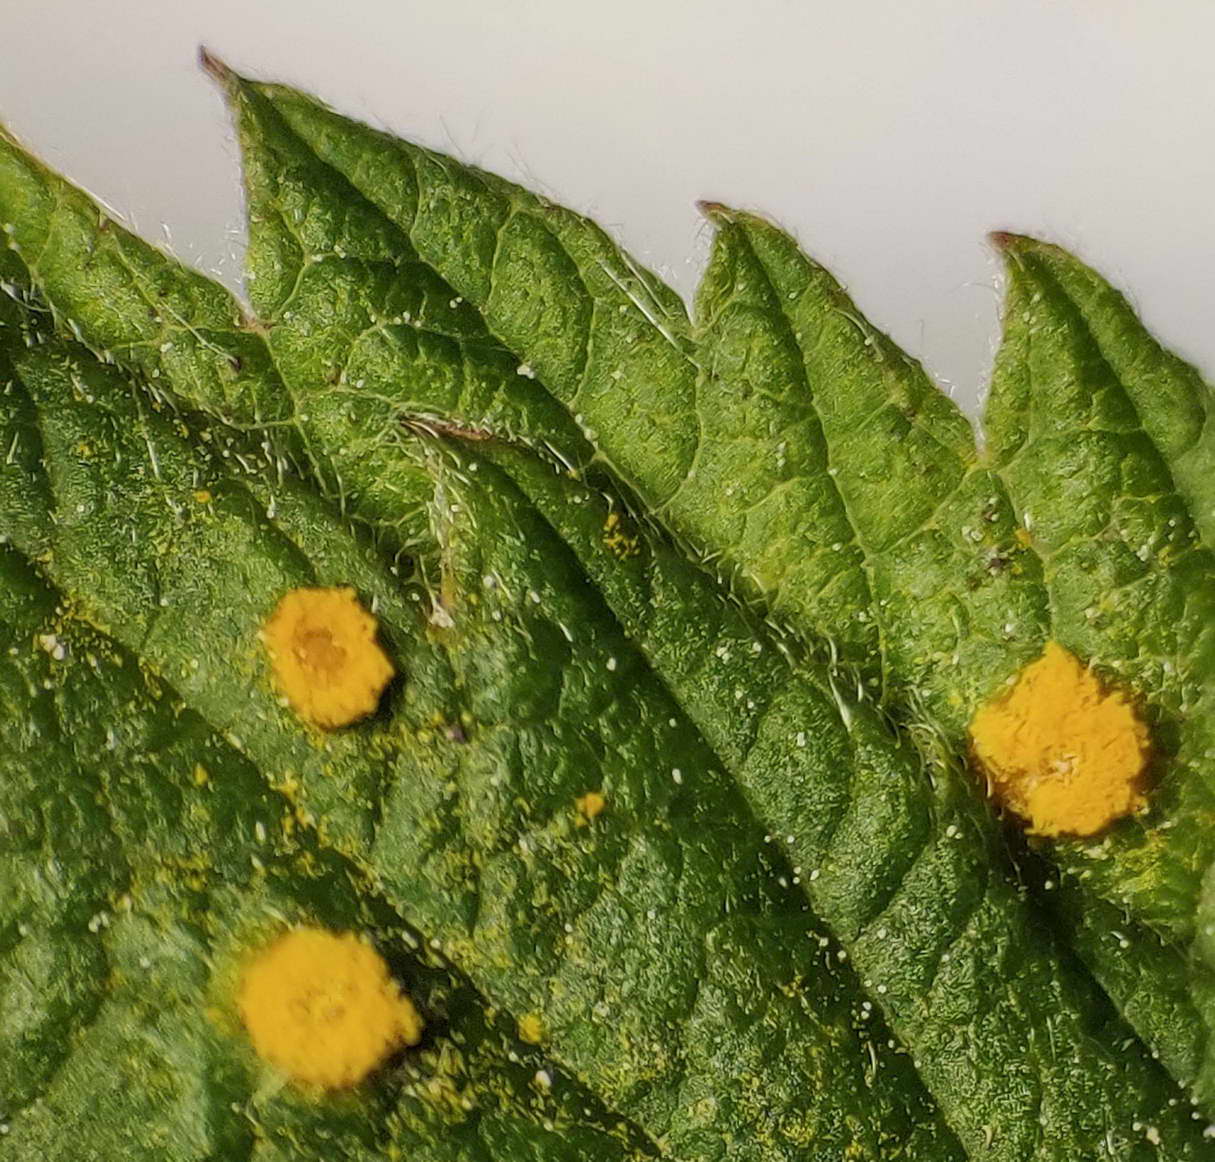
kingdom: Fungi
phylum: Basidiomycota
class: Pucciniomycetes
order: Pucciniales
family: Phragmidiaceae
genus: Phragmidium
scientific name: Phragmidium rubi-idaei
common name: hindbær-flercellerust
